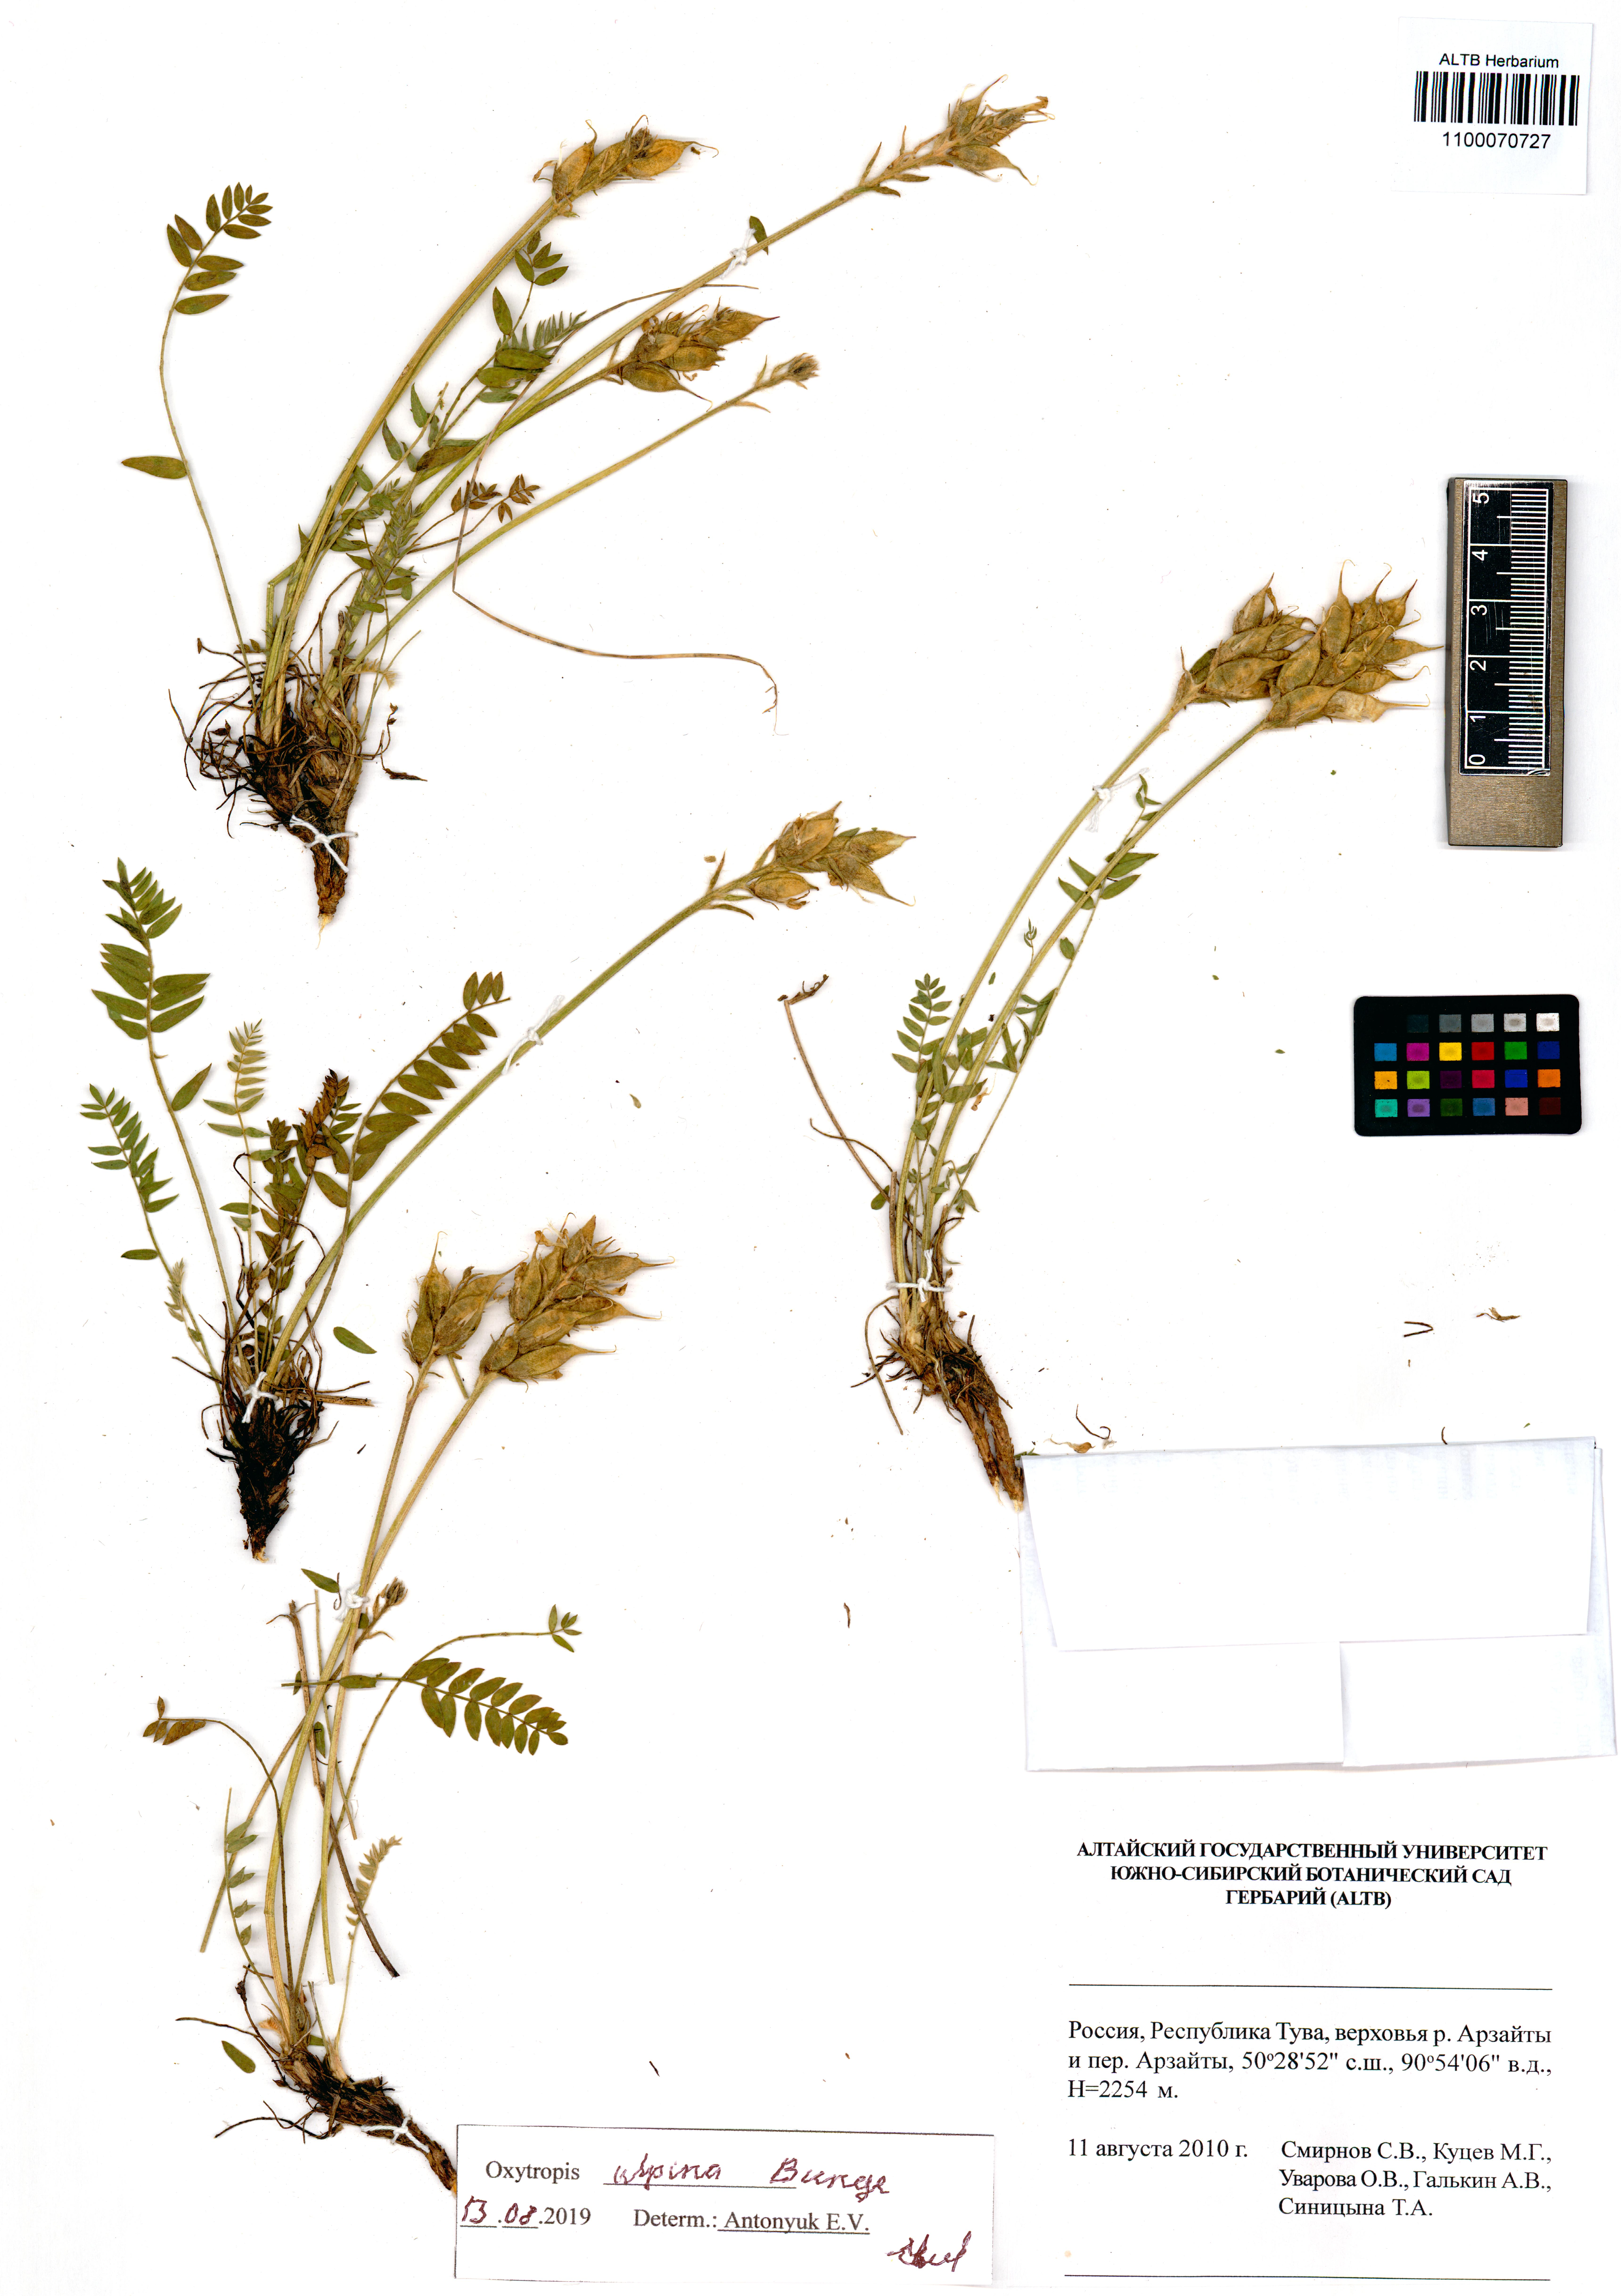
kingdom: Plantae
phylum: Tracheophyta
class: Magnoliopsida
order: Fabales
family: Fabaceae
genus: Oxytropis
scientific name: Oxytropis altaica
